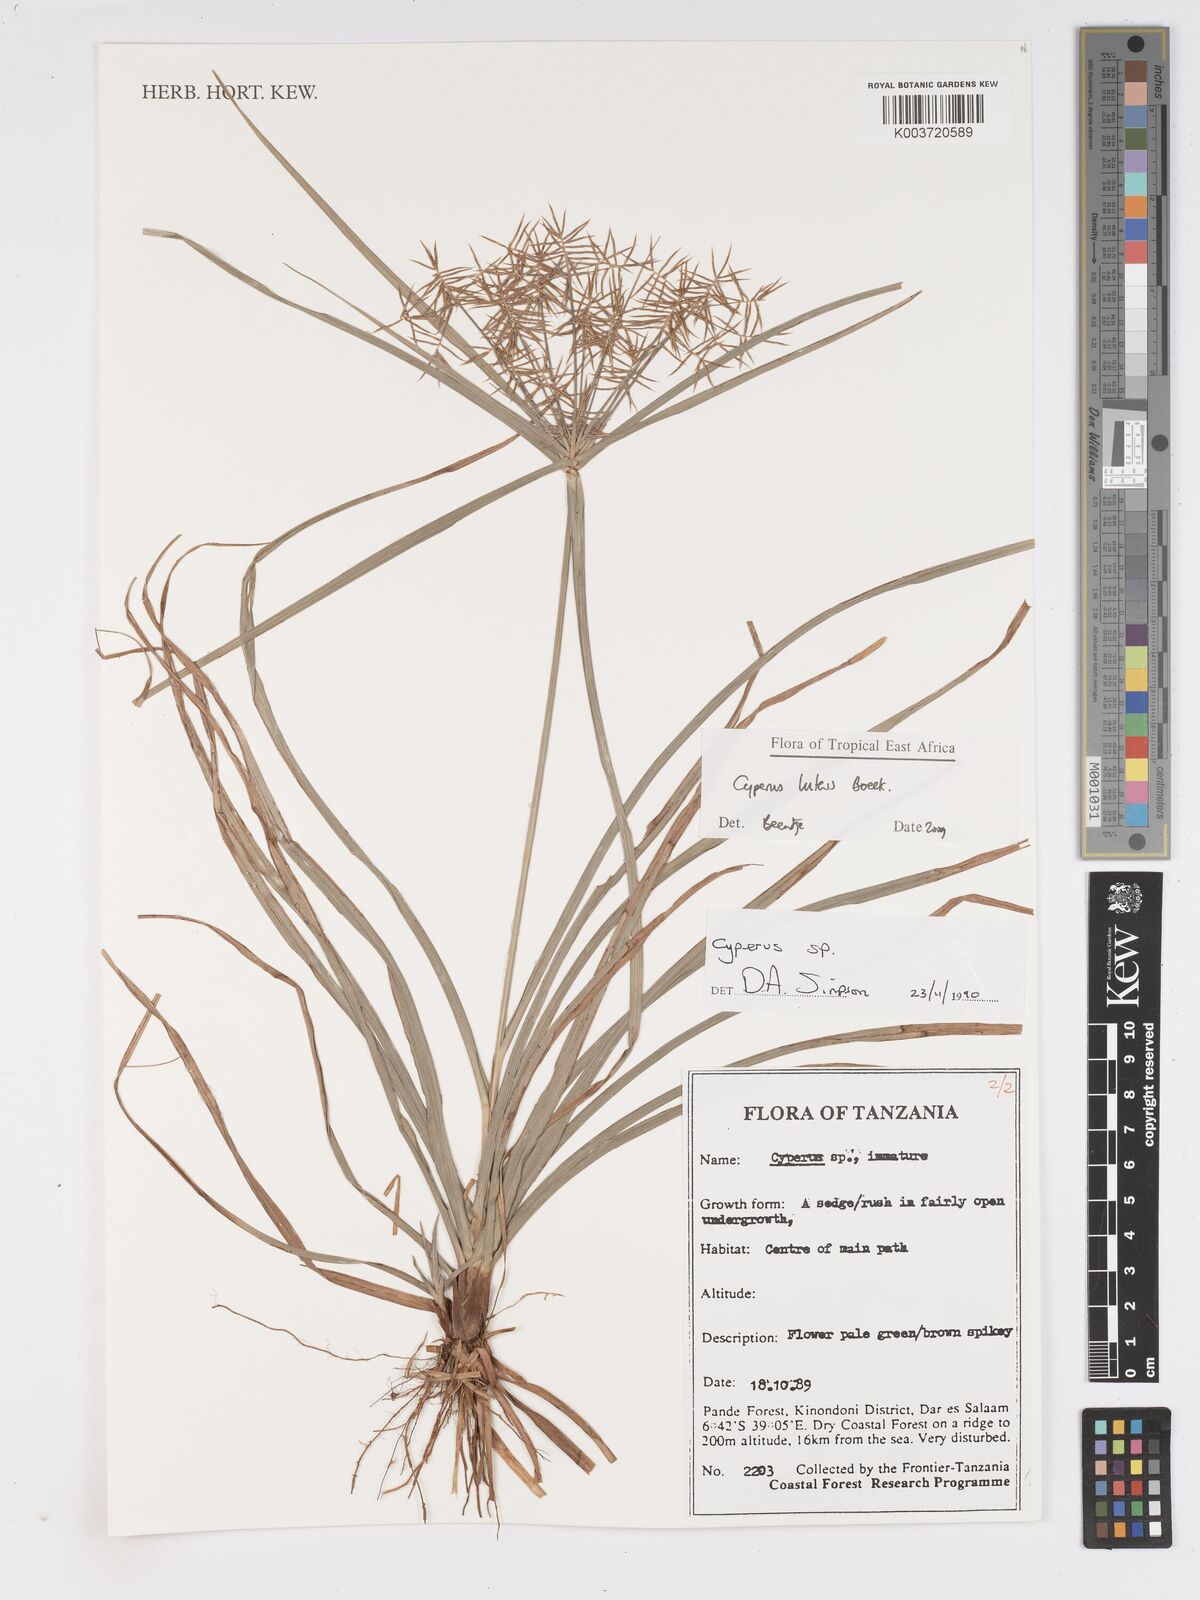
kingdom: Plantae
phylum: Tracheophyta
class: Liliopsida
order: Poales
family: Cyperaceae
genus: Cyperus
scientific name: Cyperus luteus
